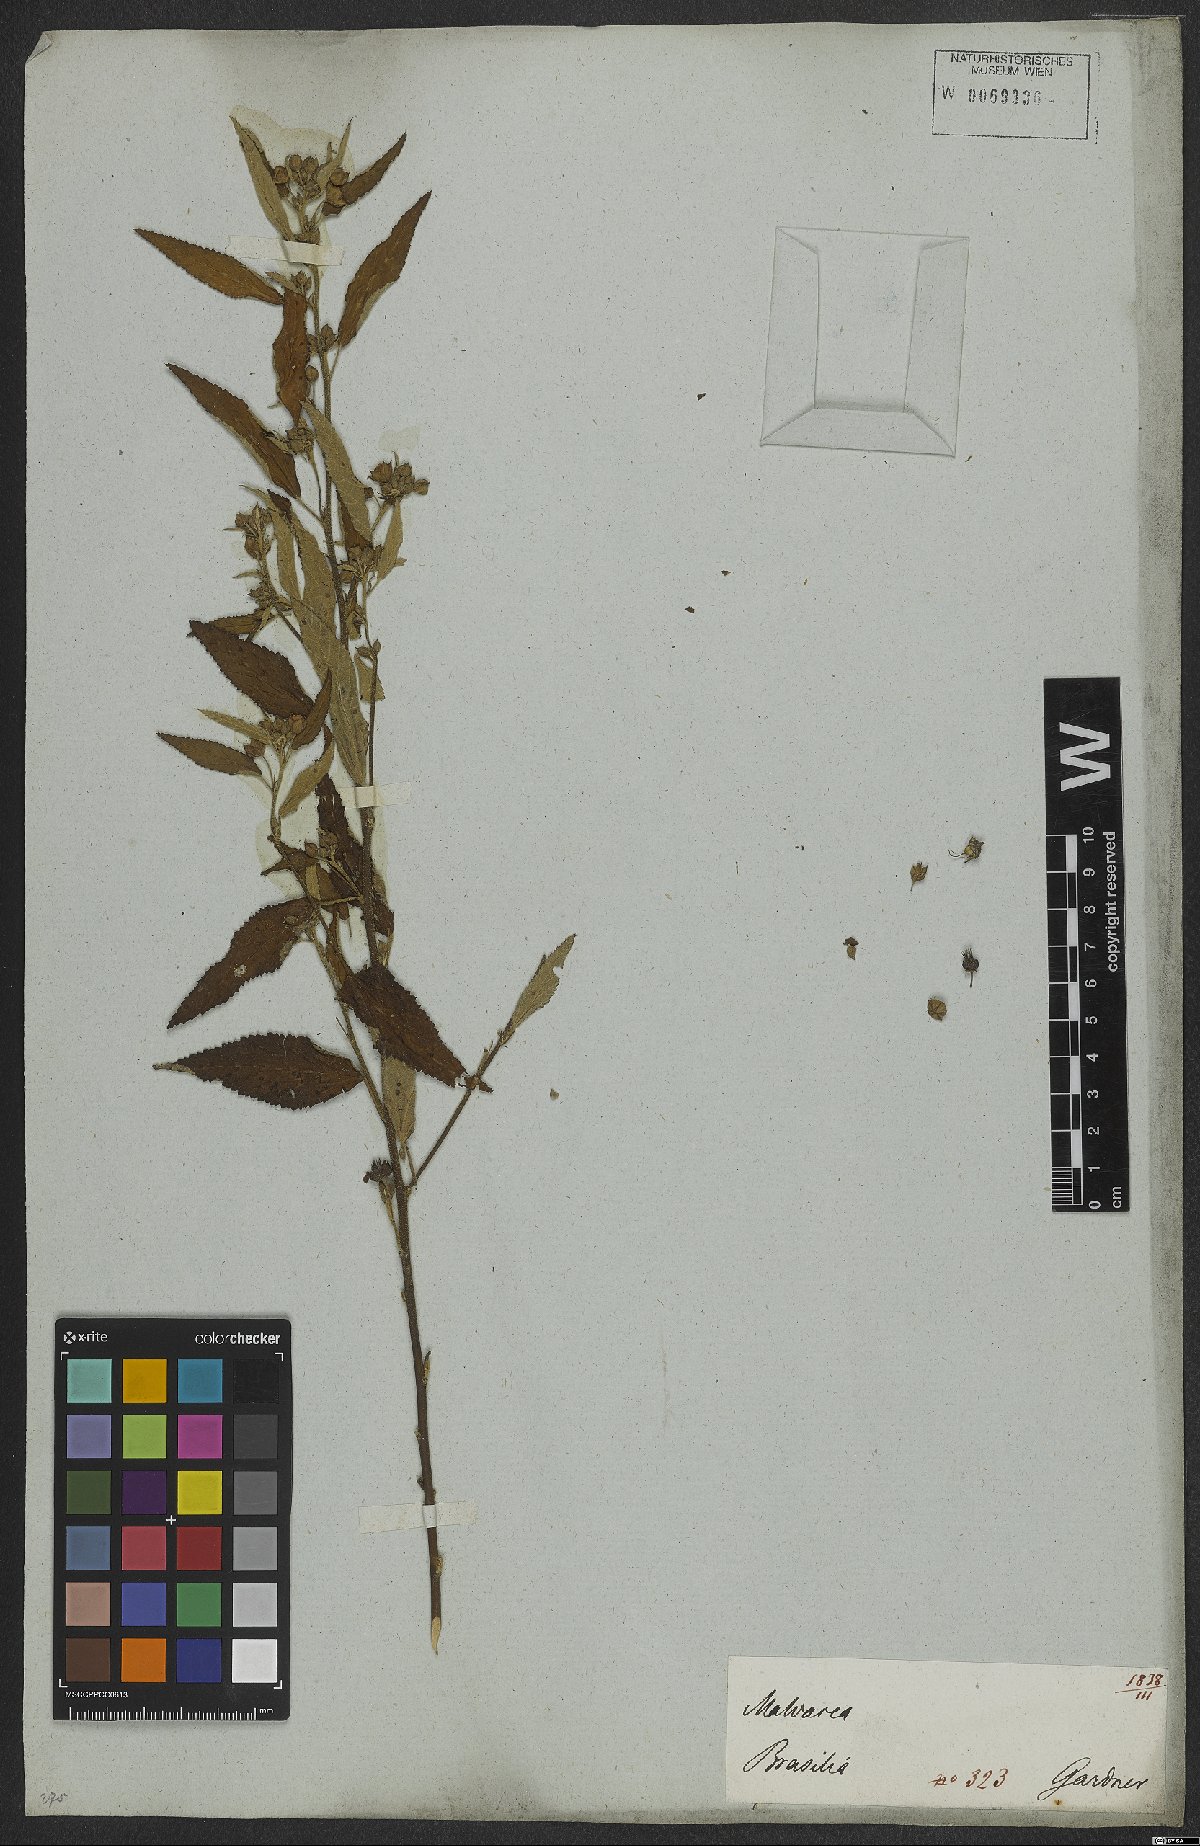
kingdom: Plantae
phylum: Tracheophyta
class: Magnoliopsida
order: Malvales
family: Malvaceae
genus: Sida
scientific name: Sida rhombifolia
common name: Queensland-hemp
